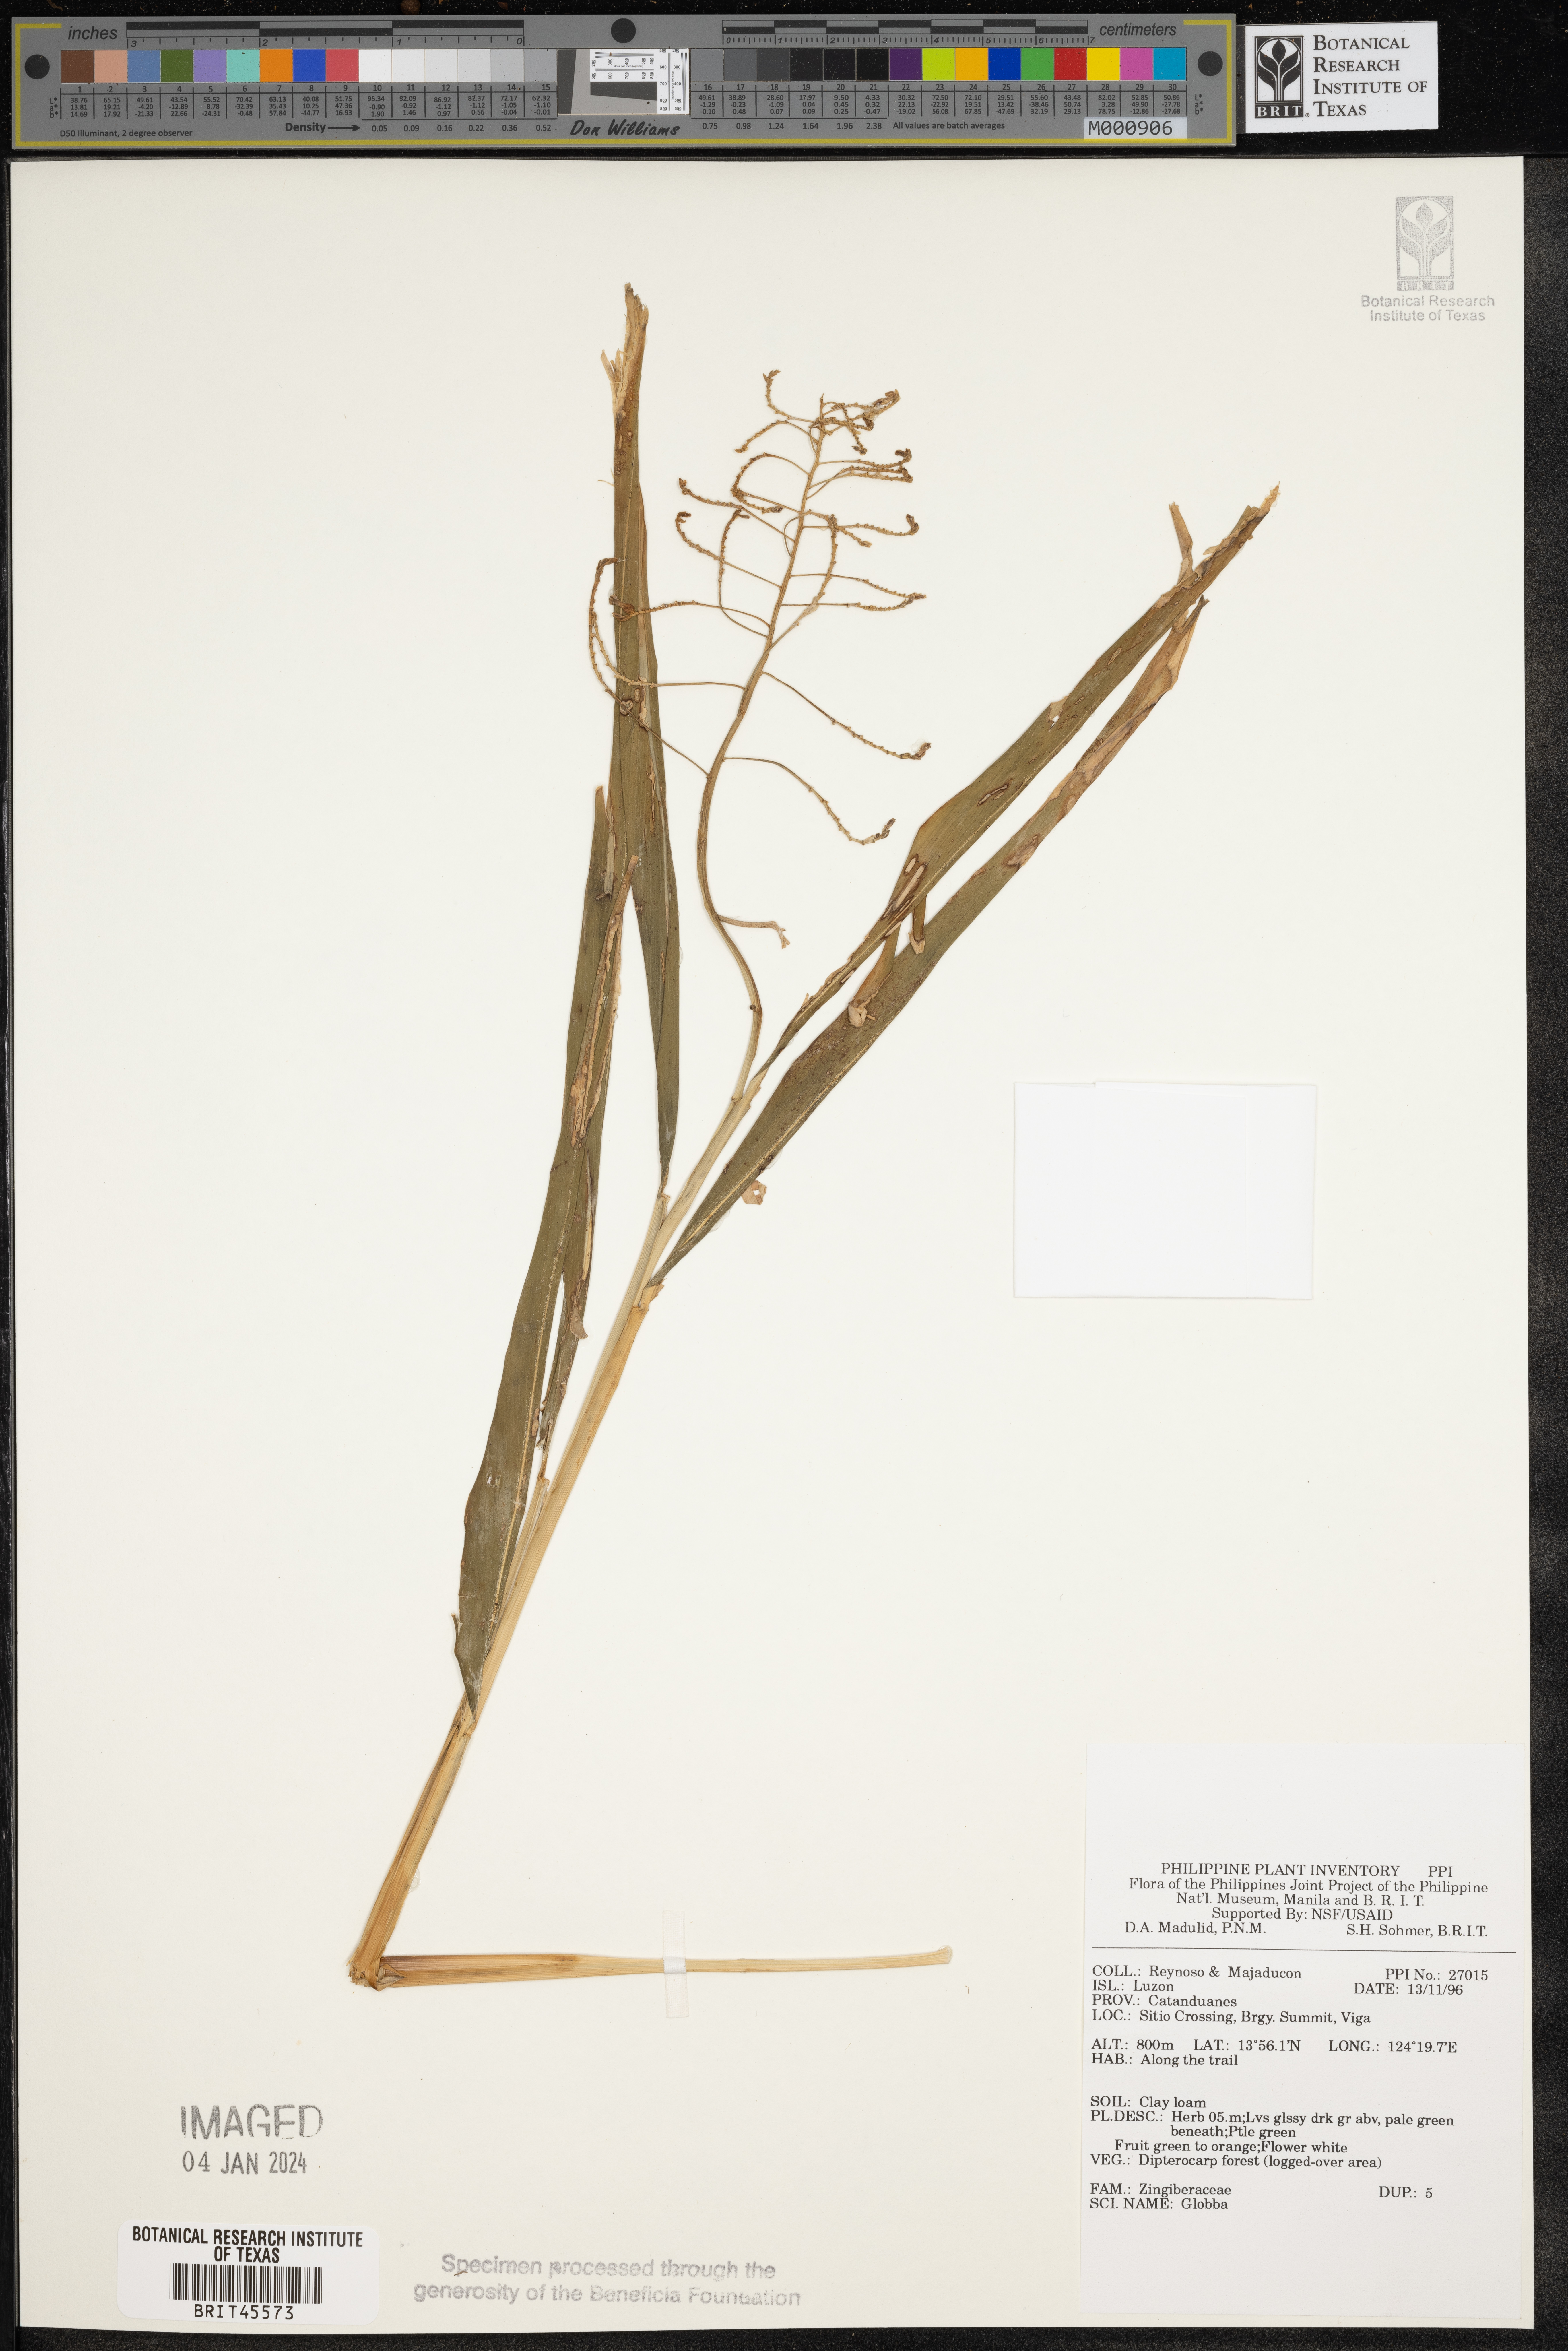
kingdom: Plantae
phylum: Tracheophyta
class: Liliopsida
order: Zingiberales
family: Zingiberaceae
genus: Globba
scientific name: Globba
